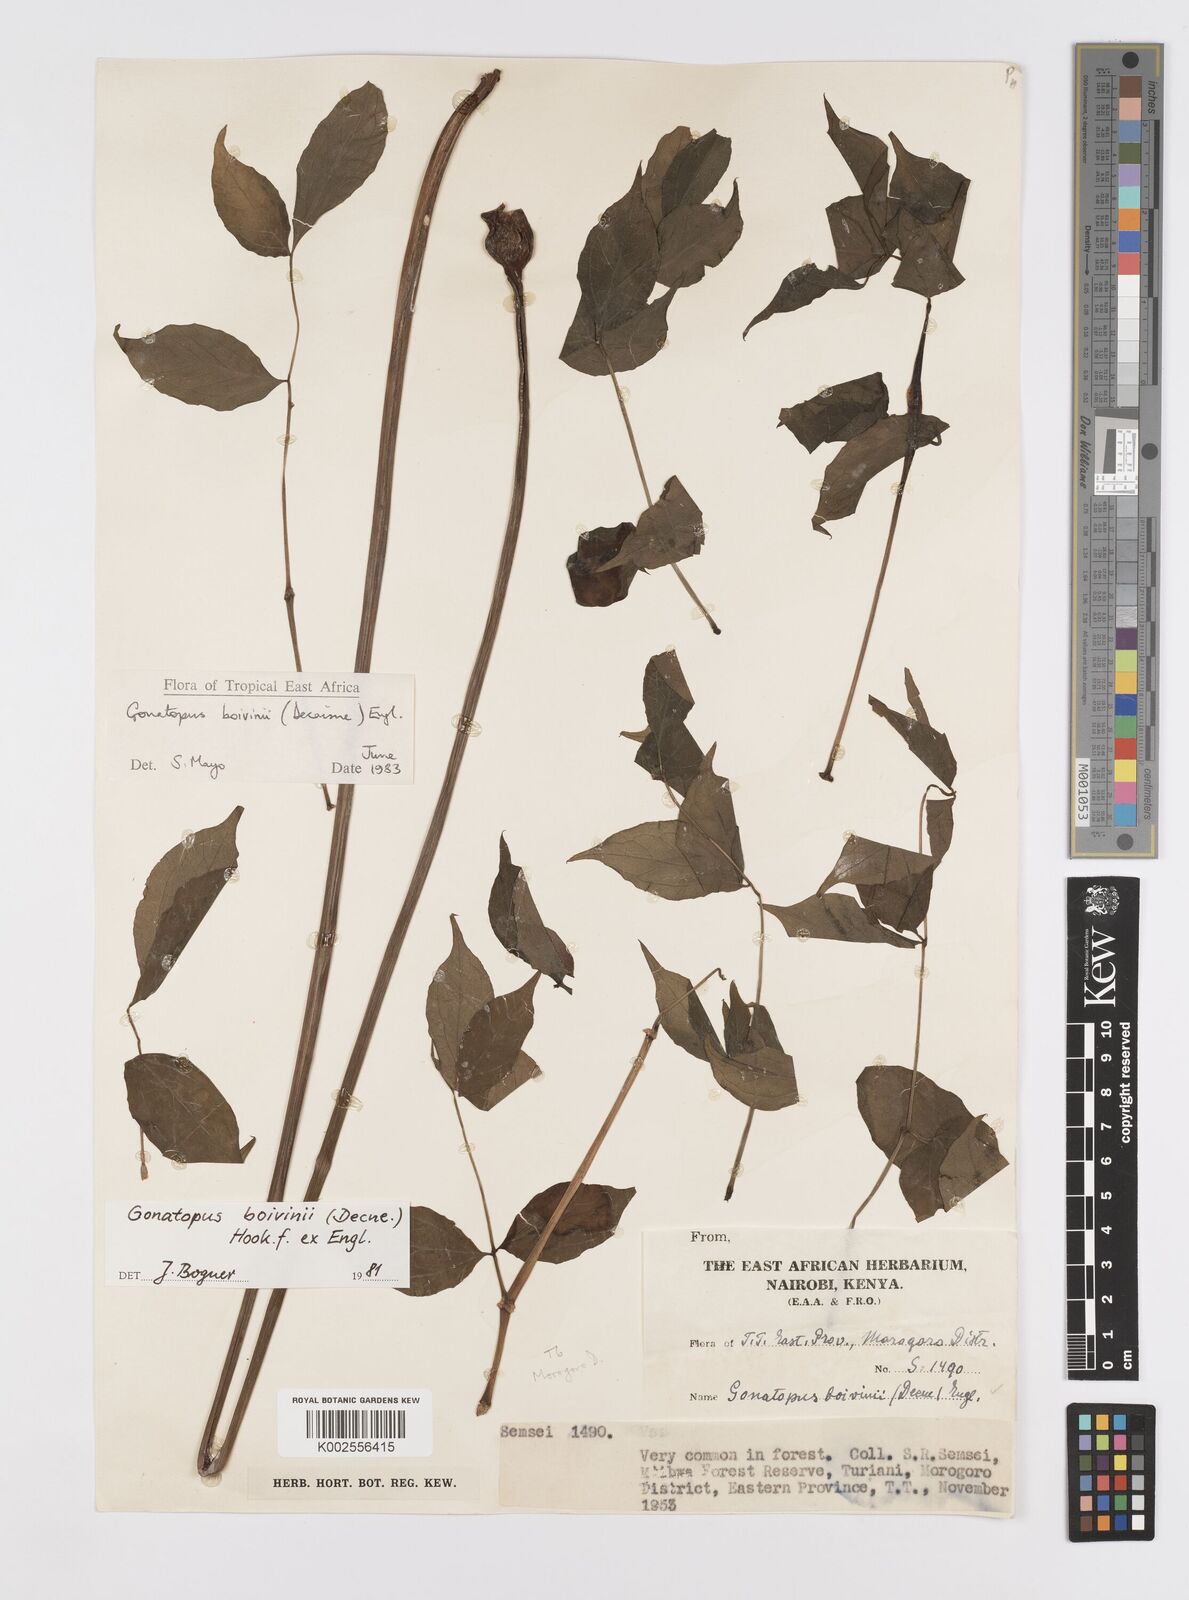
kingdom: Plantae
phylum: Tracheophyta
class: Liliopsida
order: Alismatales
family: Araceae
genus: Gonatopus
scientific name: Gonatopus boivinii
